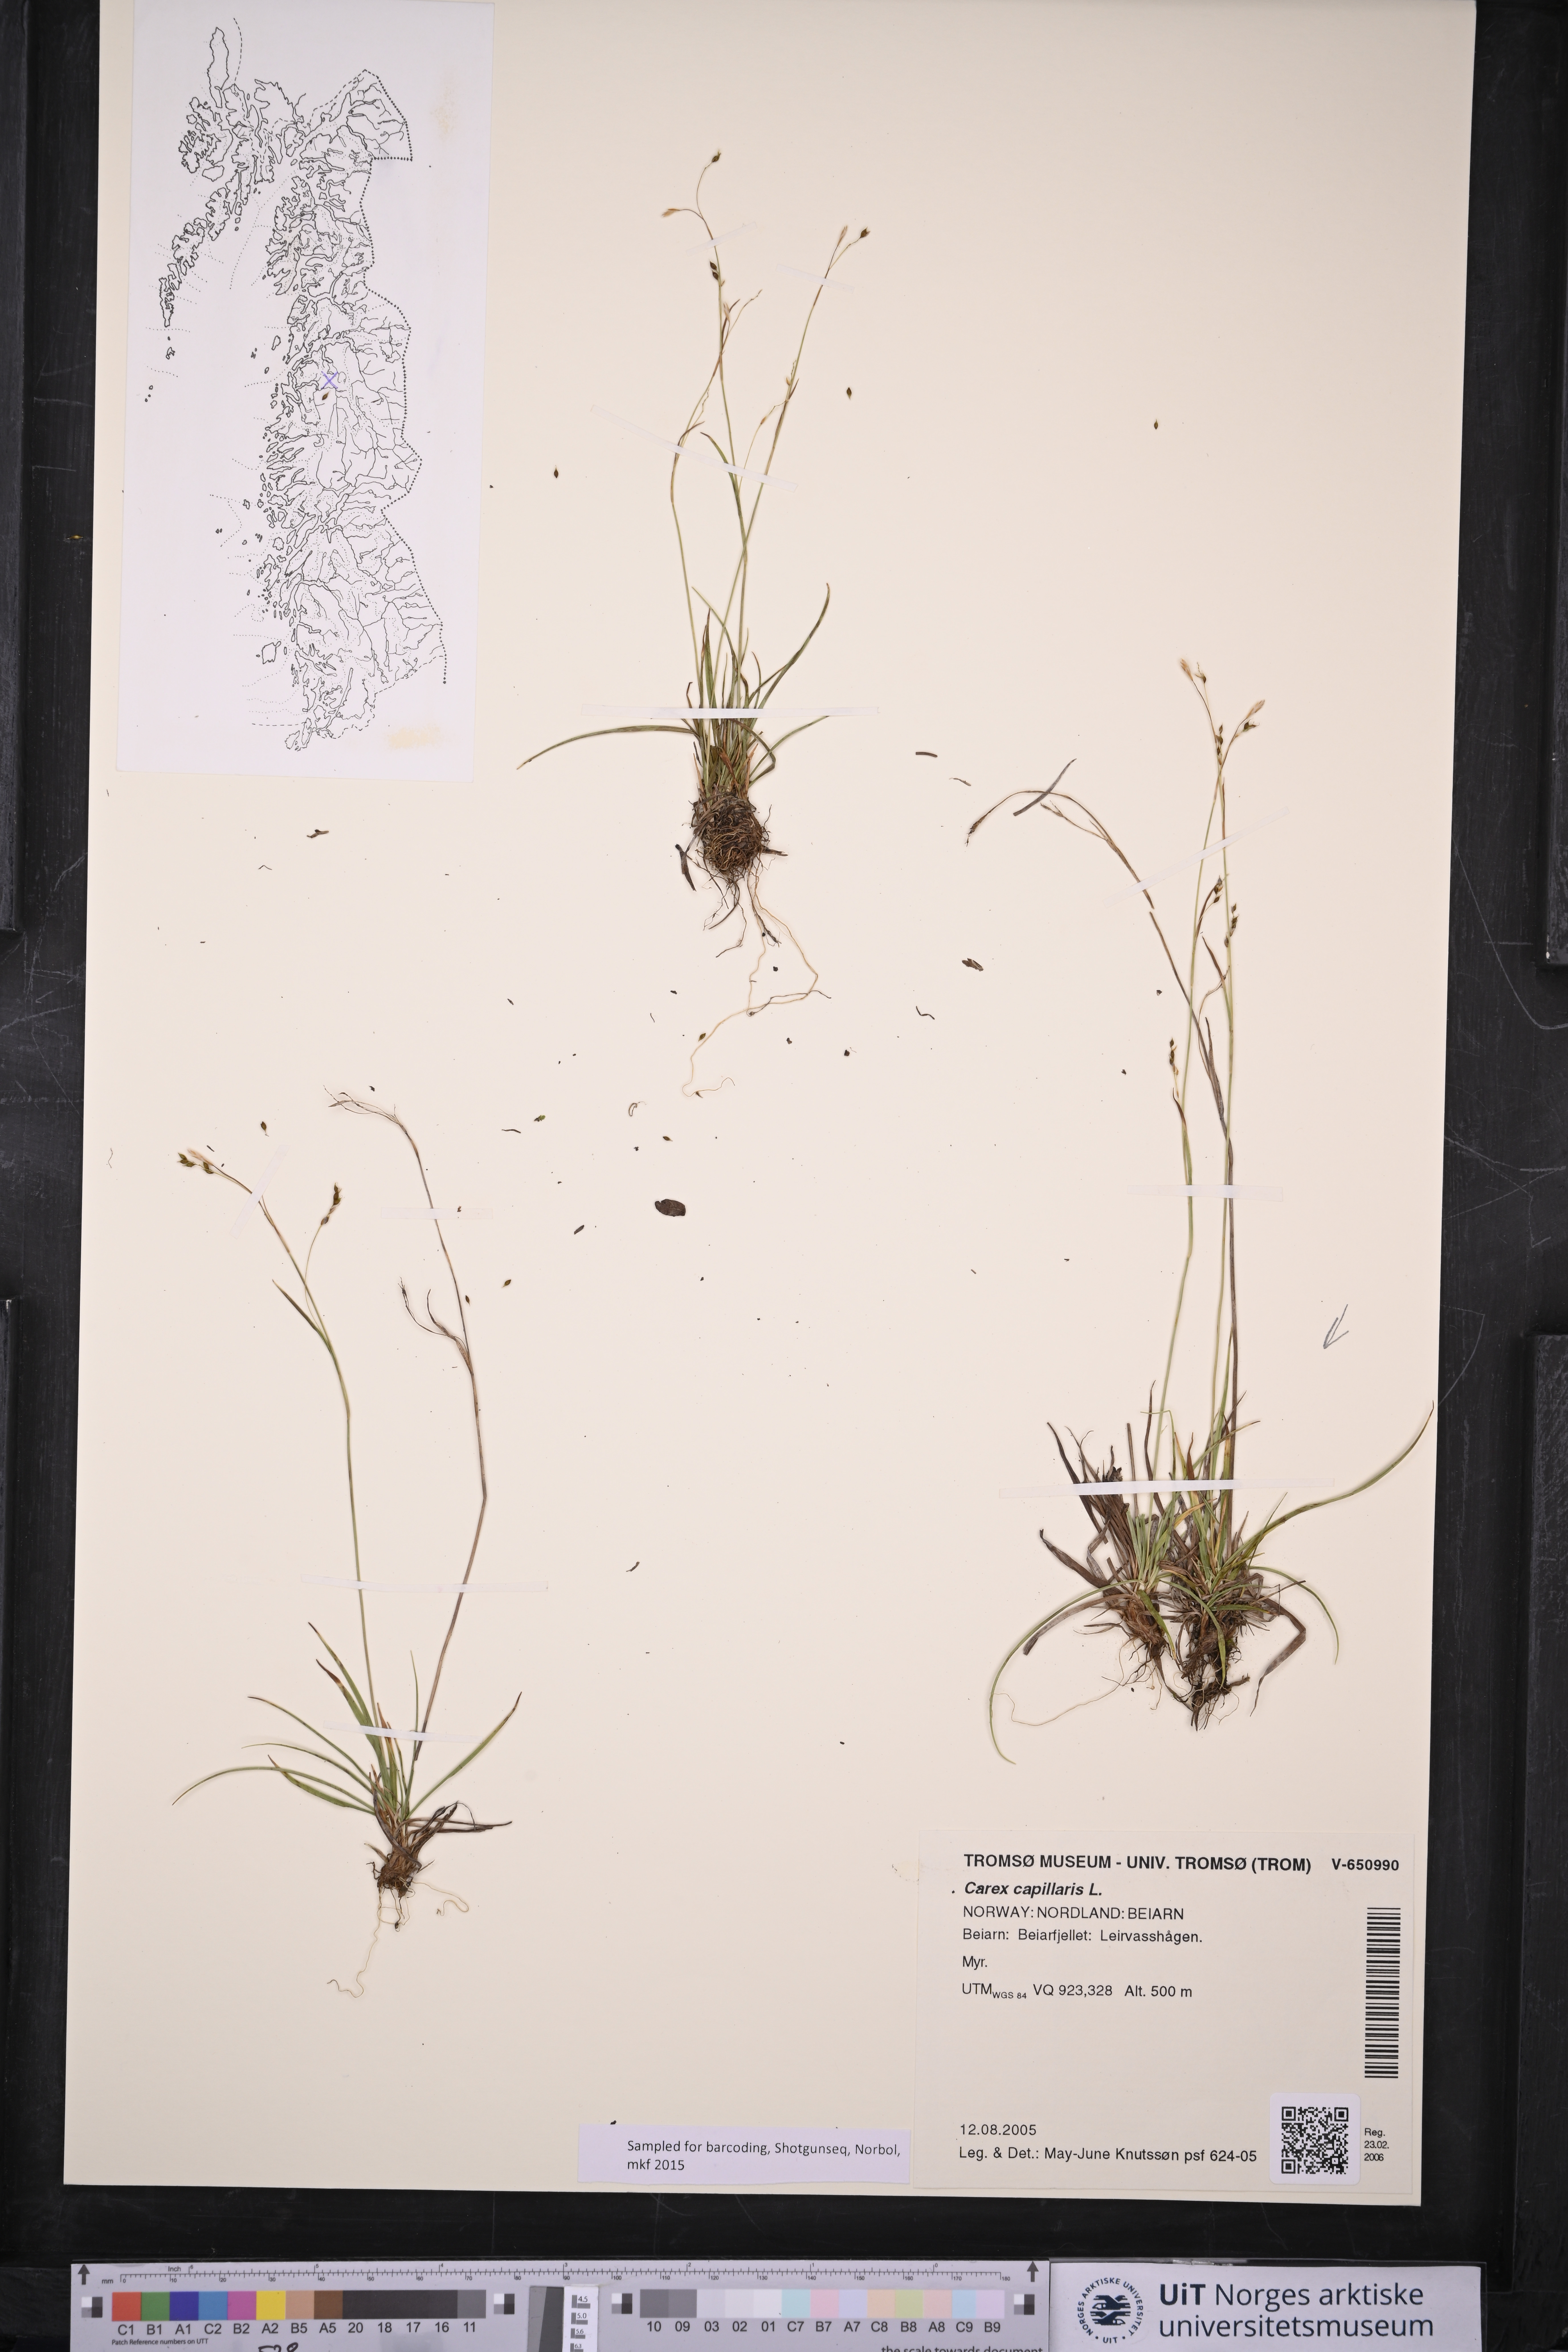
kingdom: Plantae
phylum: Tracheophyta
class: Liliopsida
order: Poales
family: Cyperaceae
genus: Carex
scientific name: Carex capillaris
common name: Hair sedge
